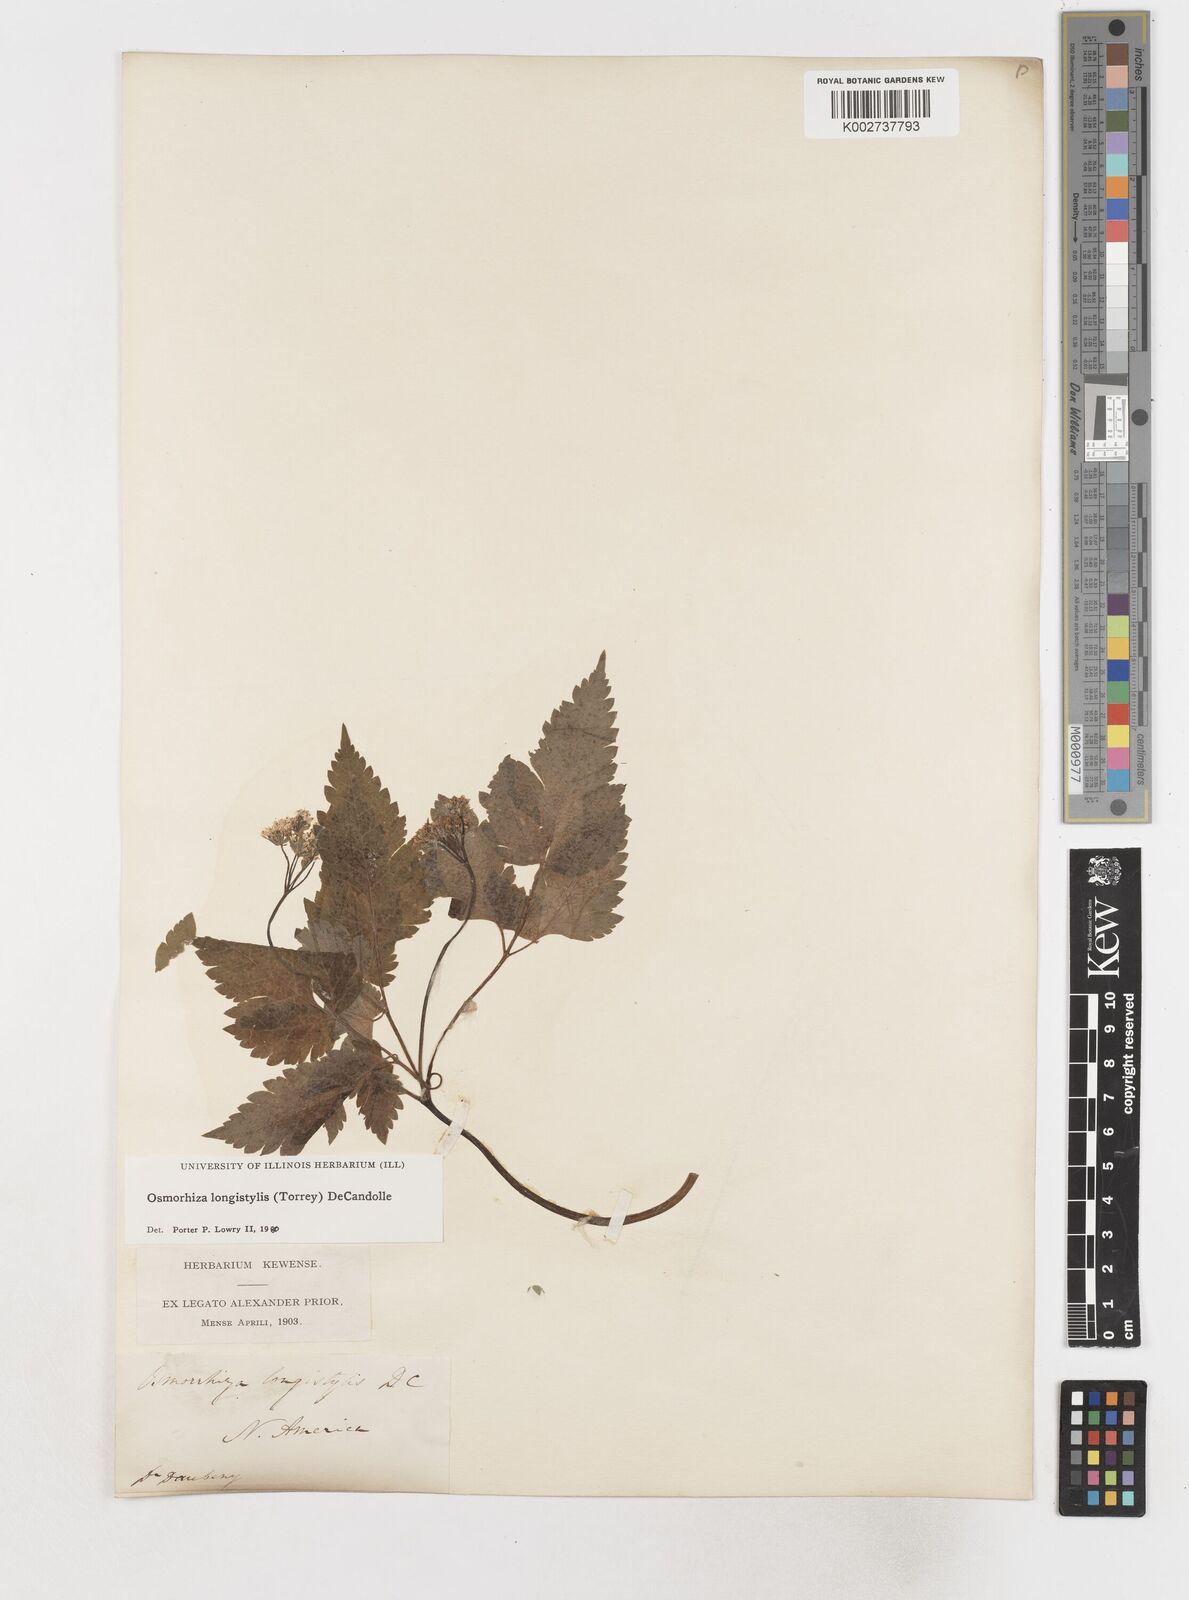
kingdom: Plantae
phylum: Tracheophyta
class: Magnoliopsida
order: Apiales
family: Apiaceae
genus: Osmorhiza
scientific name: Osmorhiza longistylis
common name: Smooth sweet cicely
